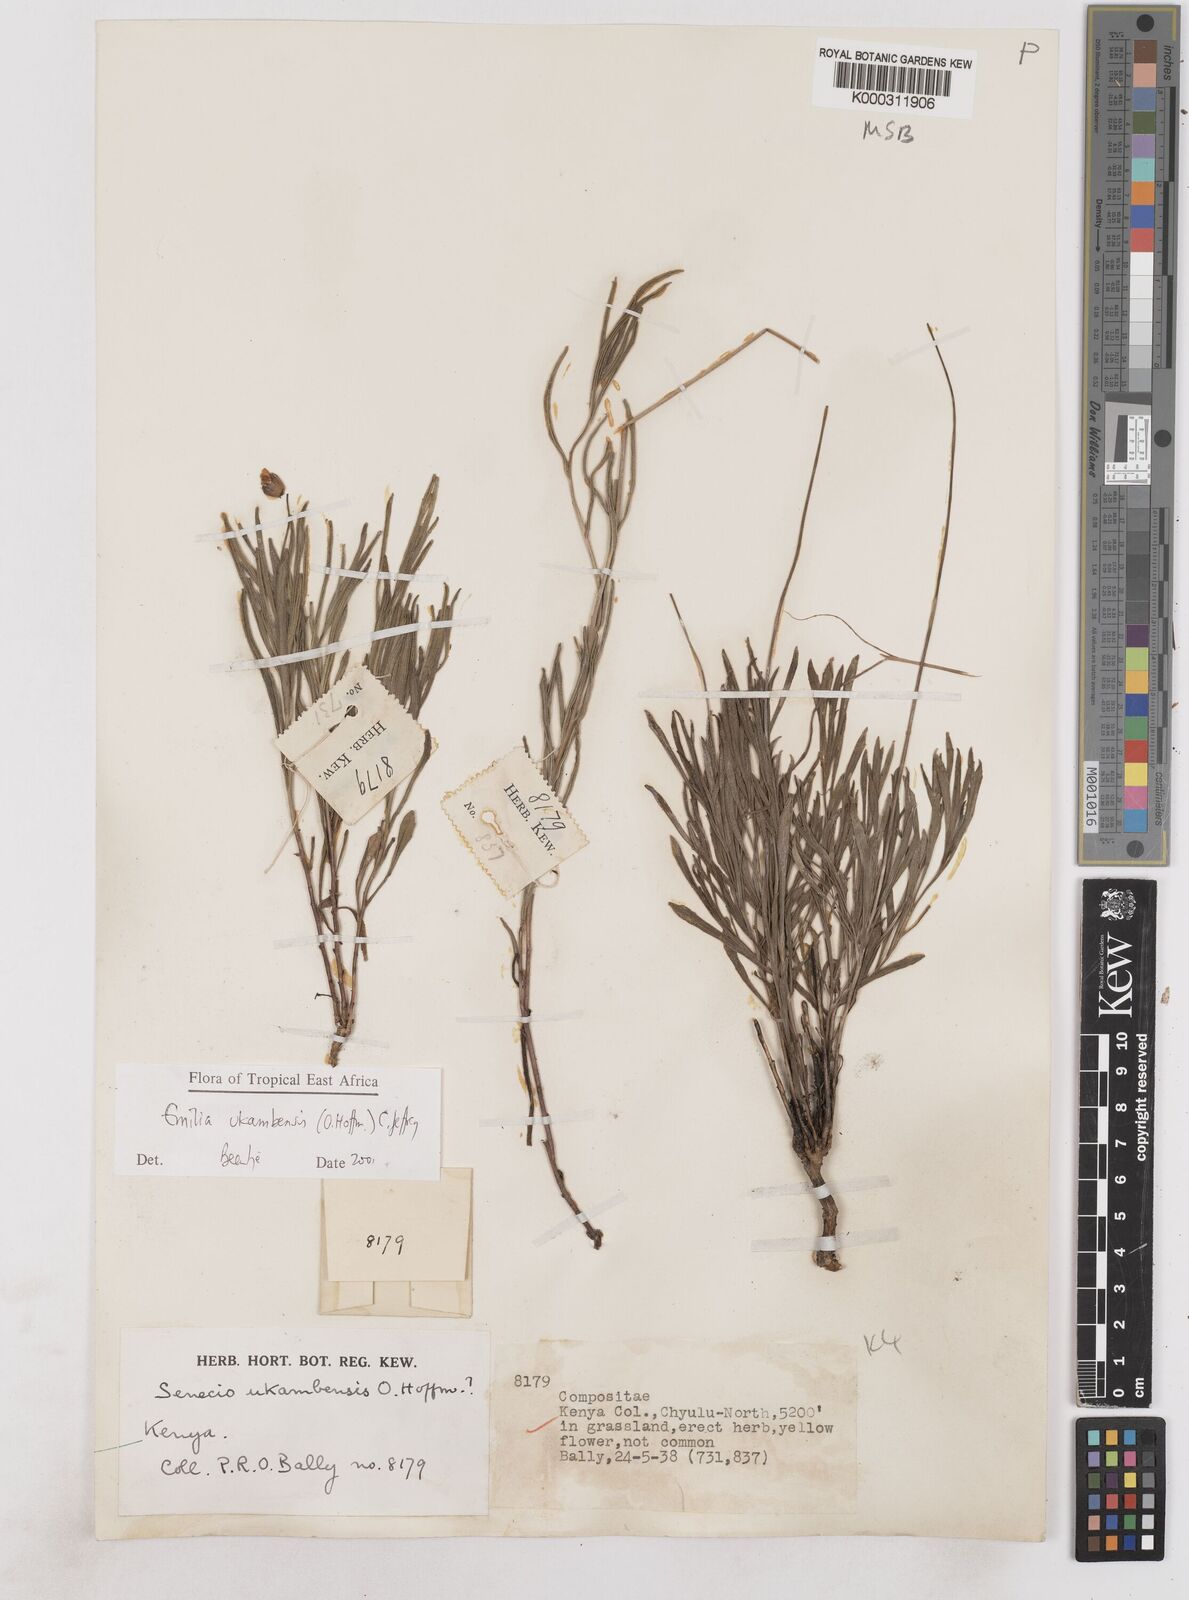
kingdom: Plantae
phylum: Tracheophyta
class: Magnoliopsida
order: Asterales
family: Asteraceae
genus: Emilia
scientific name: Emilia ukambensis
